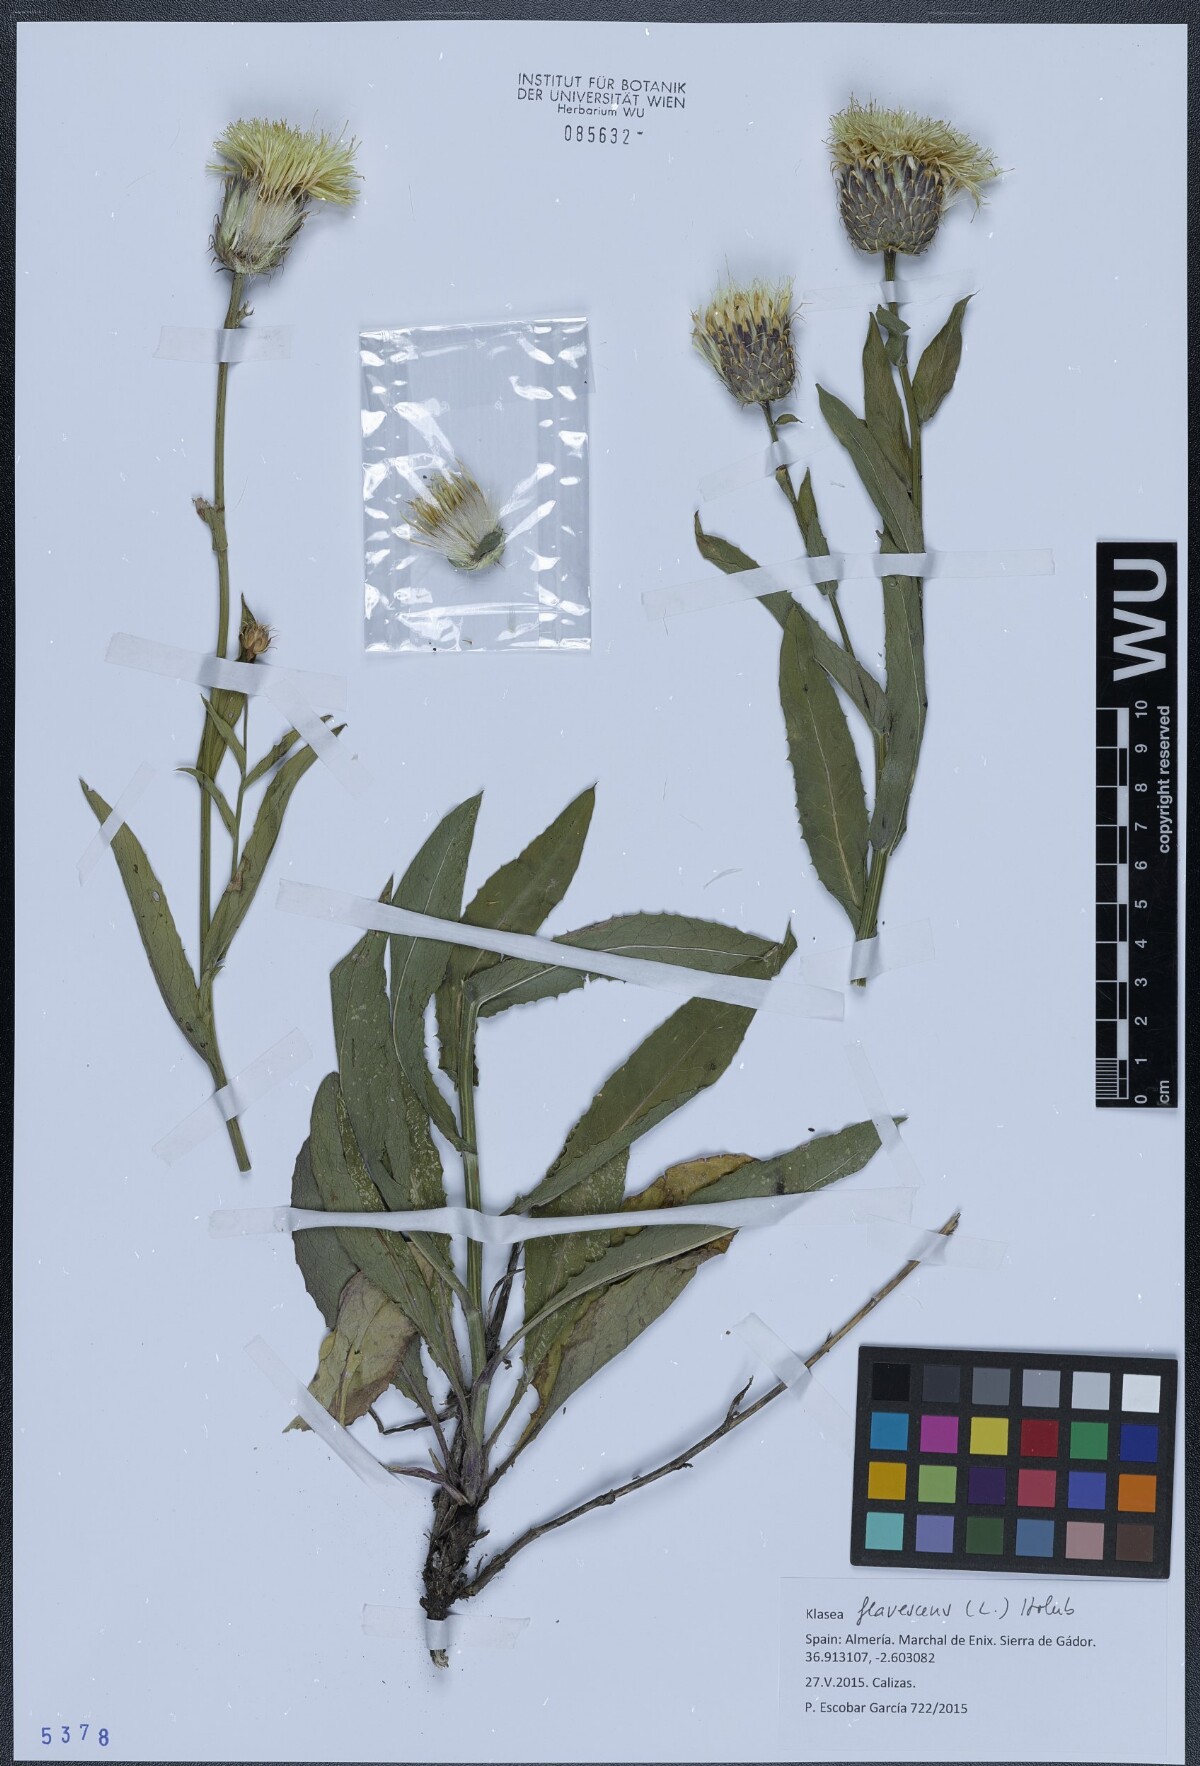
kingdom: Plantae
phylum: Tracheophyta
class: Magnoliopsida
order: Asterales
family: Asteraceae
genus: Klasea
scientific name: Klasea flavescens
